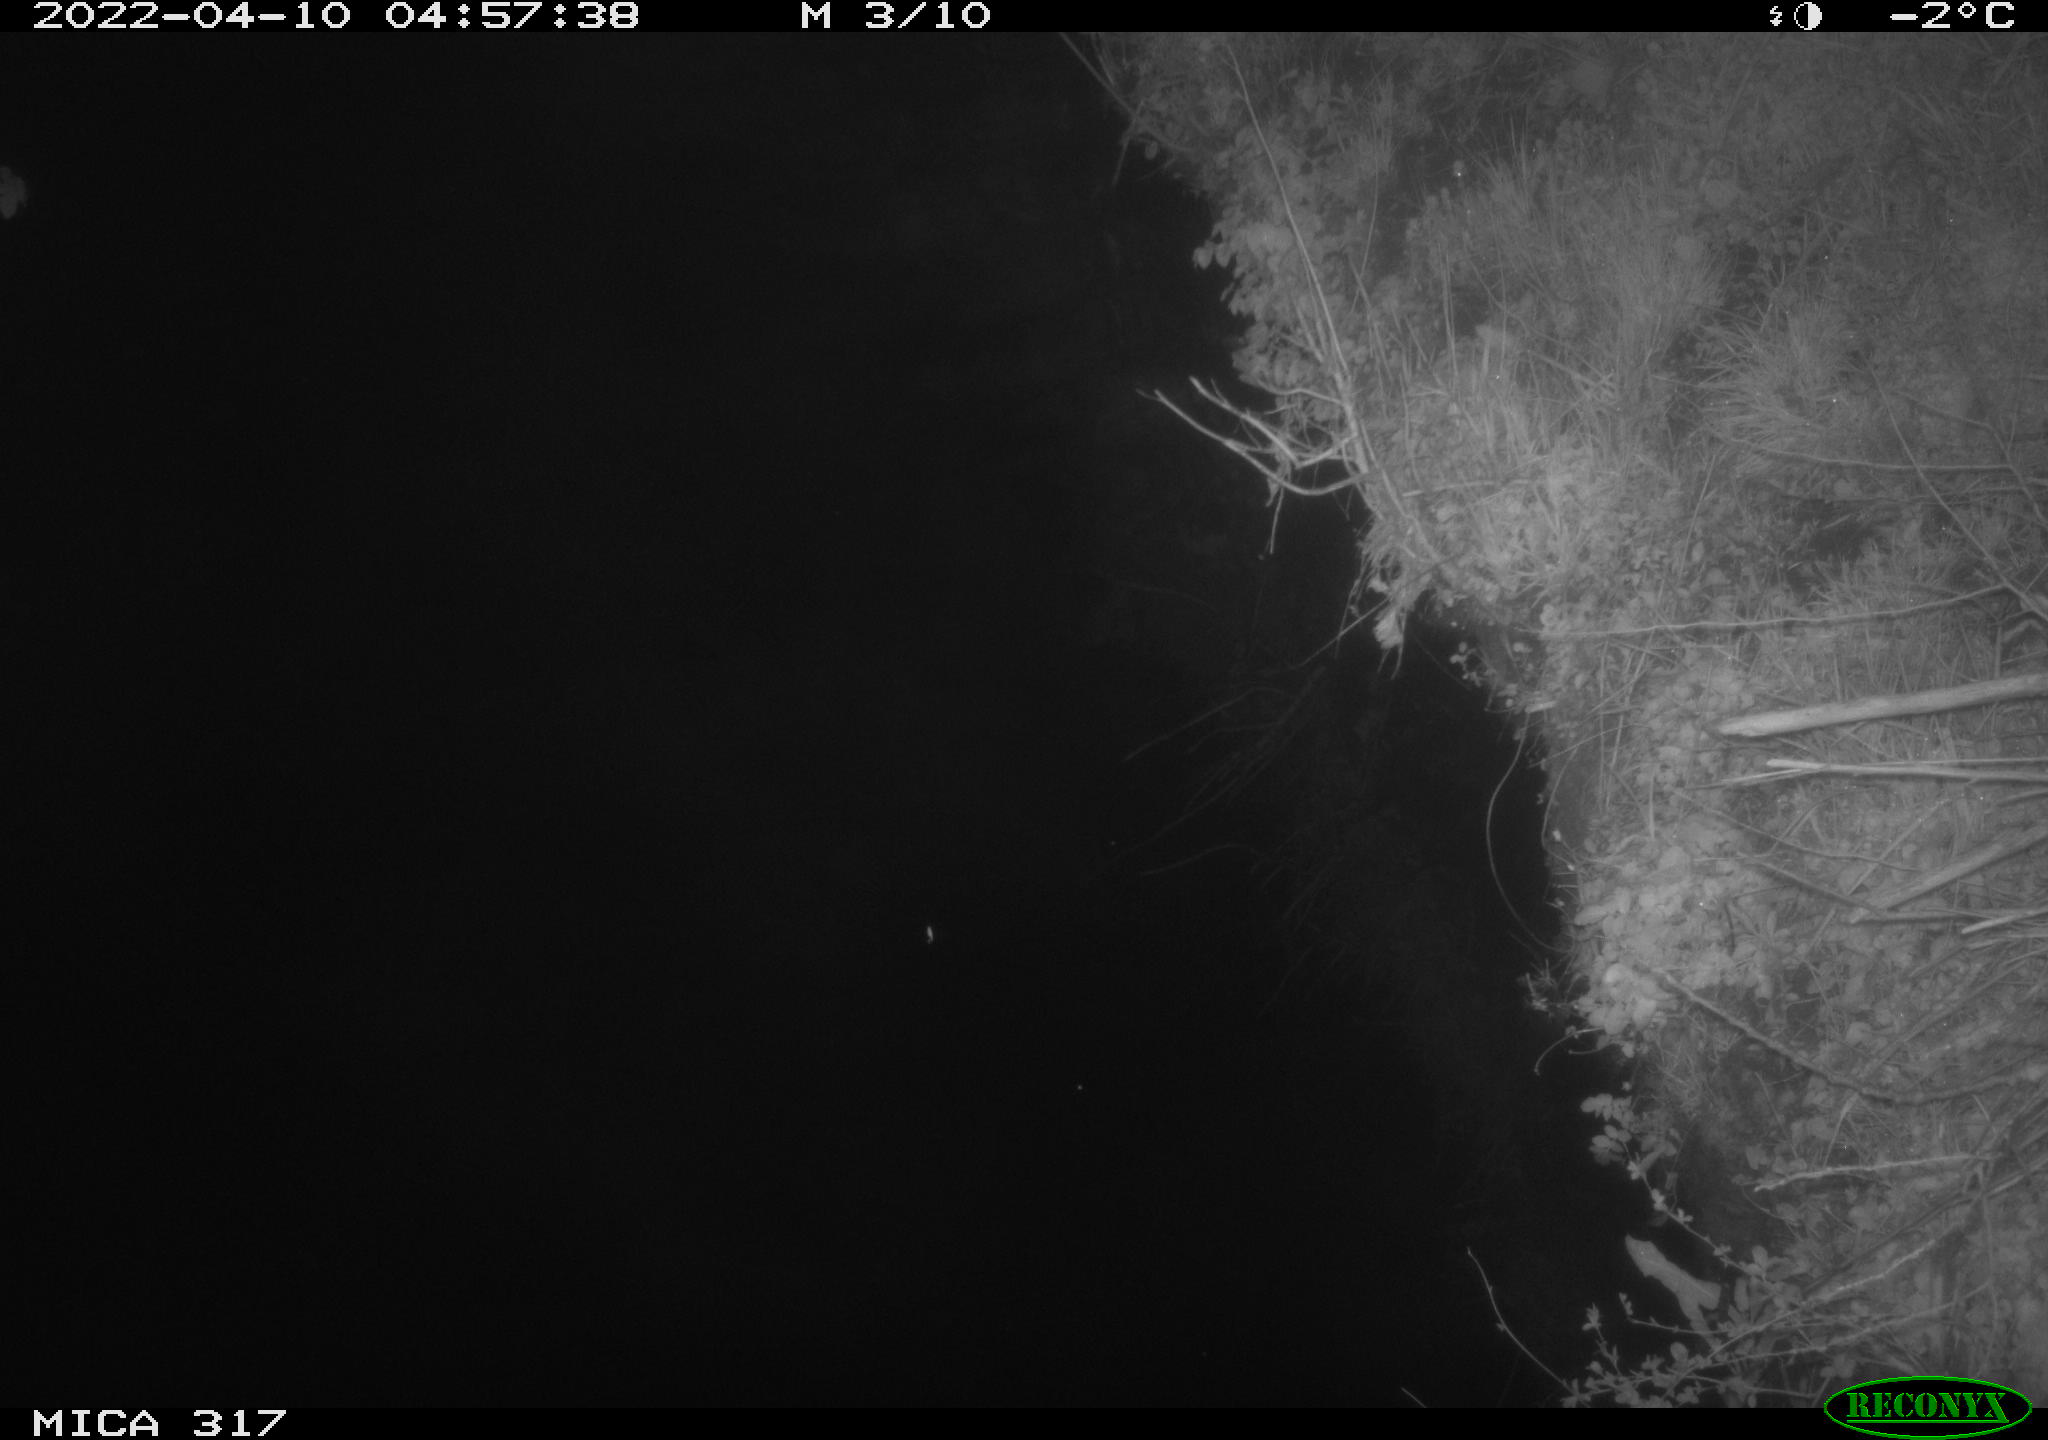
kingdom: Animalia
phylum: Chordata
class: Aves
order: Anseriformes
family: Anatidae
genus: Anas
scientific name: Anas platyrhynchos
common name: Mallard
